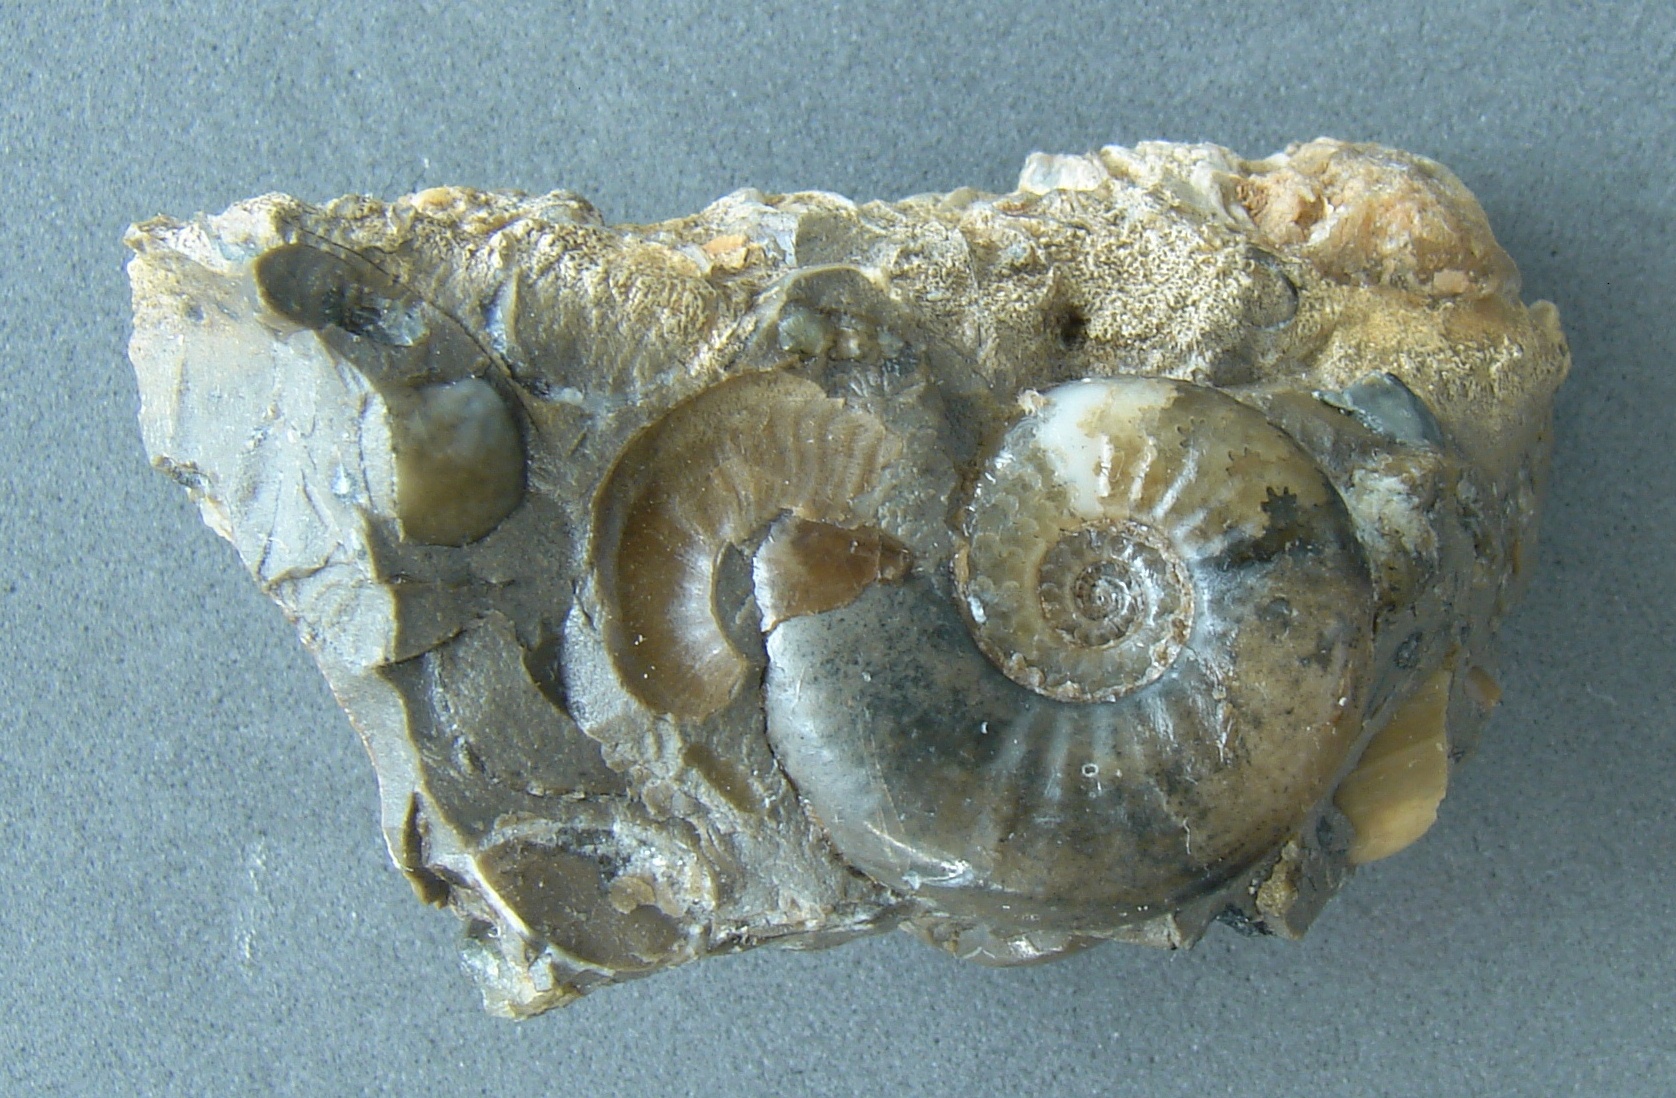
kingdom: Animalia
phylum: Mollusca
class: Cephalopoda
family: Amaltheidae
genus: Amauroceras
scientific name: Amauroceras ferrugineum
